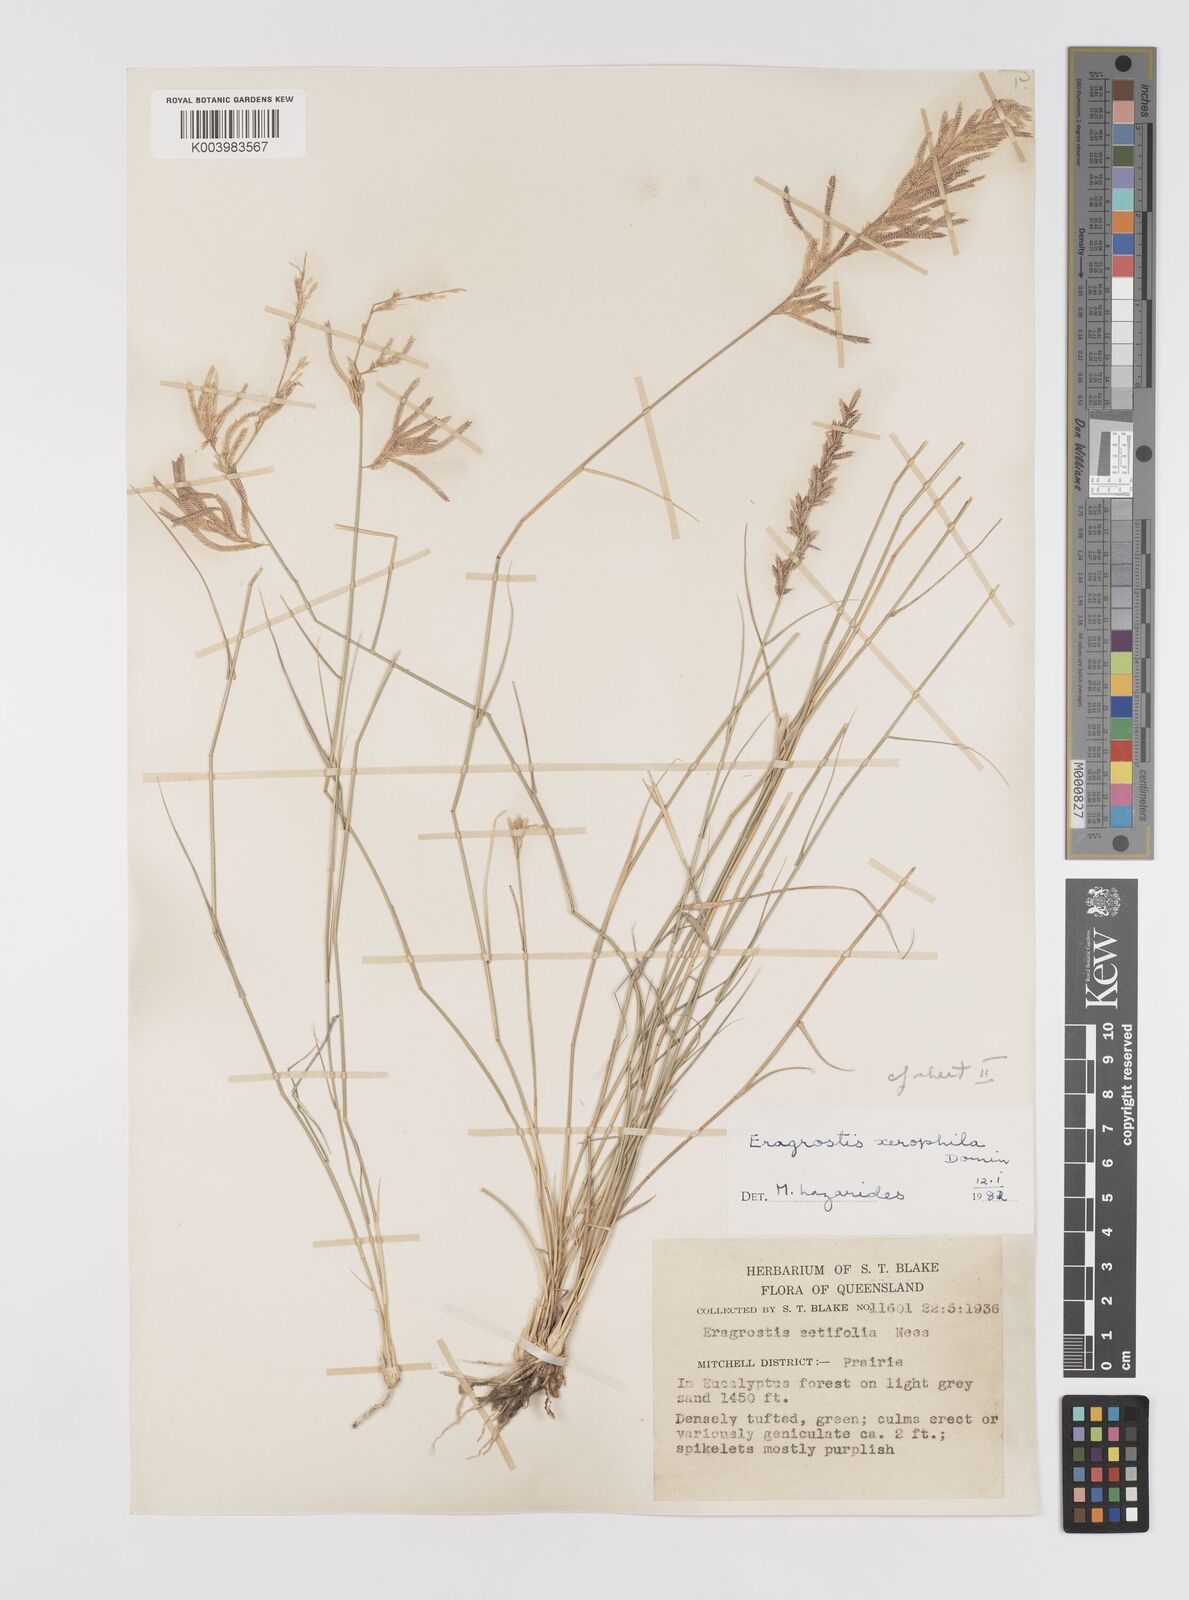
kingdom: Plantae
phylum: Tracheophyta
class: Liliopsida
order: Poales
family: Poaceae
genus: Eragrostis
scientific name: Eragrostis xerophila
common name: Wire wandarrie grass
